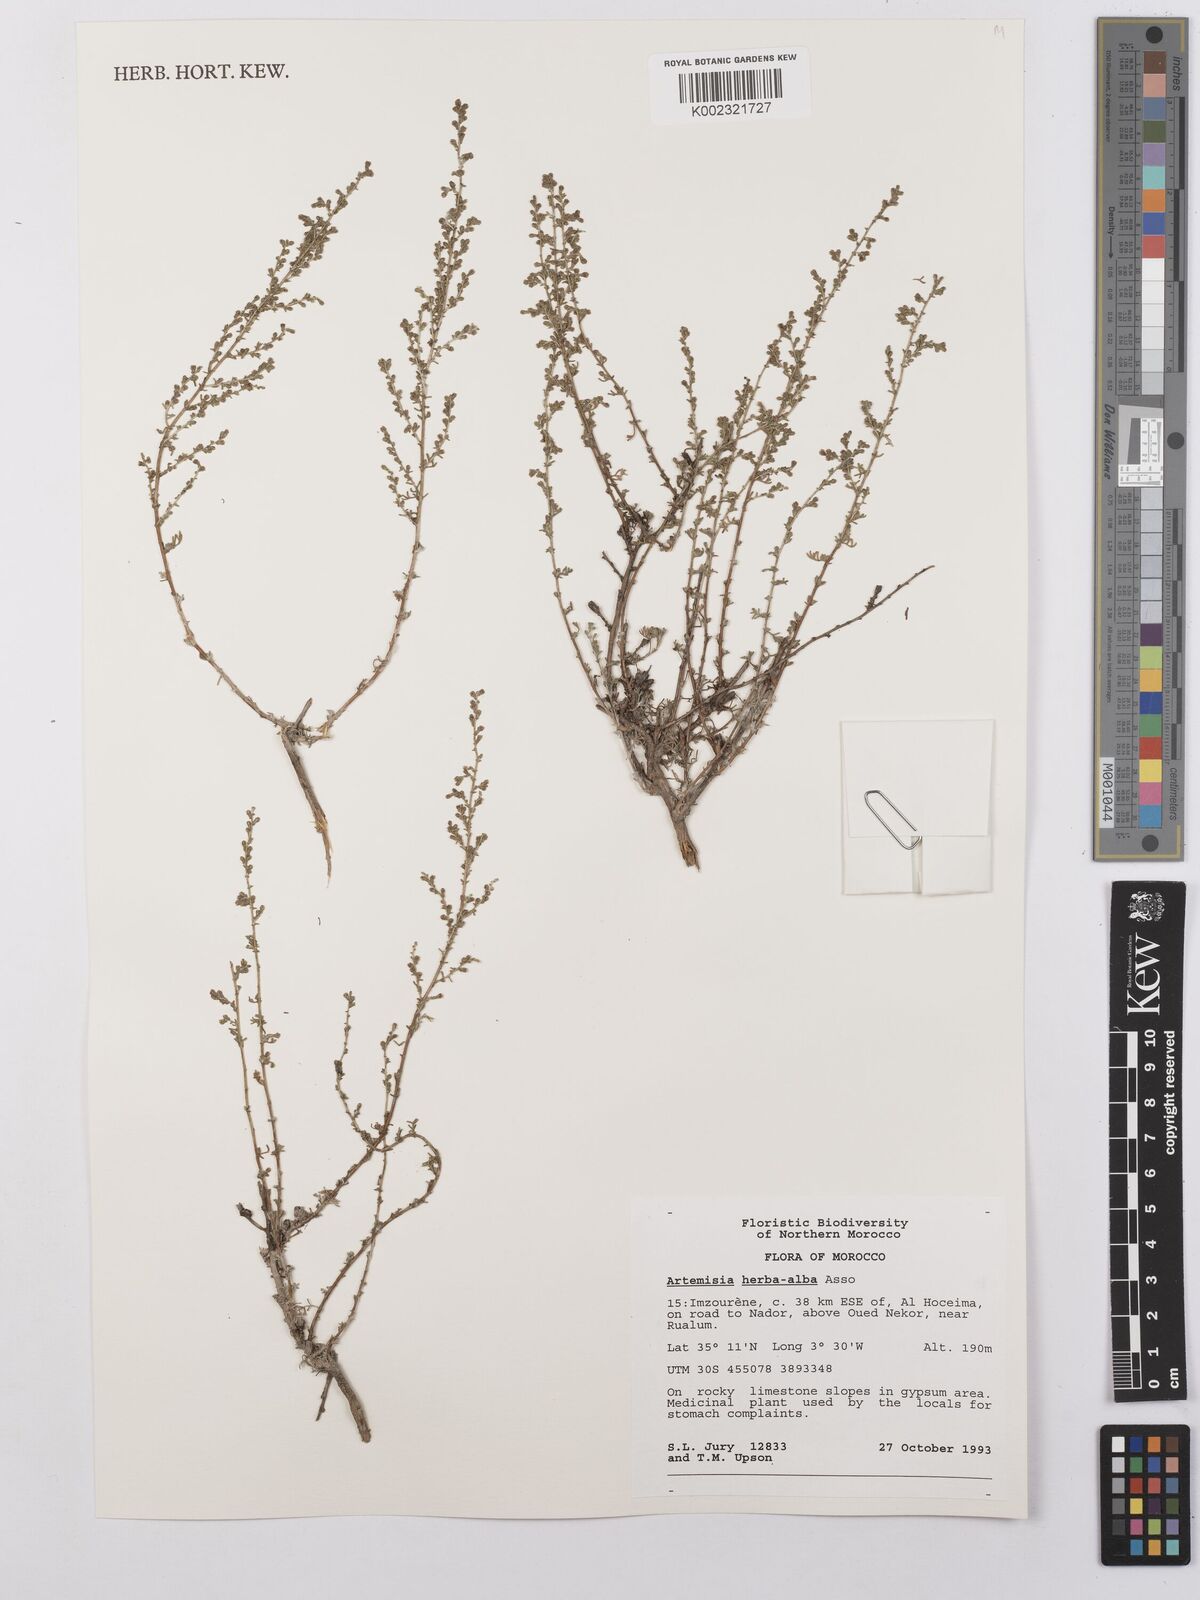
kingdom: Plantae
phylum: Tracheophyta
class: Magnoliopsida
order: Asterales
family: Asteraceae
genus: Artemisia
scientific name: Artemisia herba-alba
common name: White wormwood
